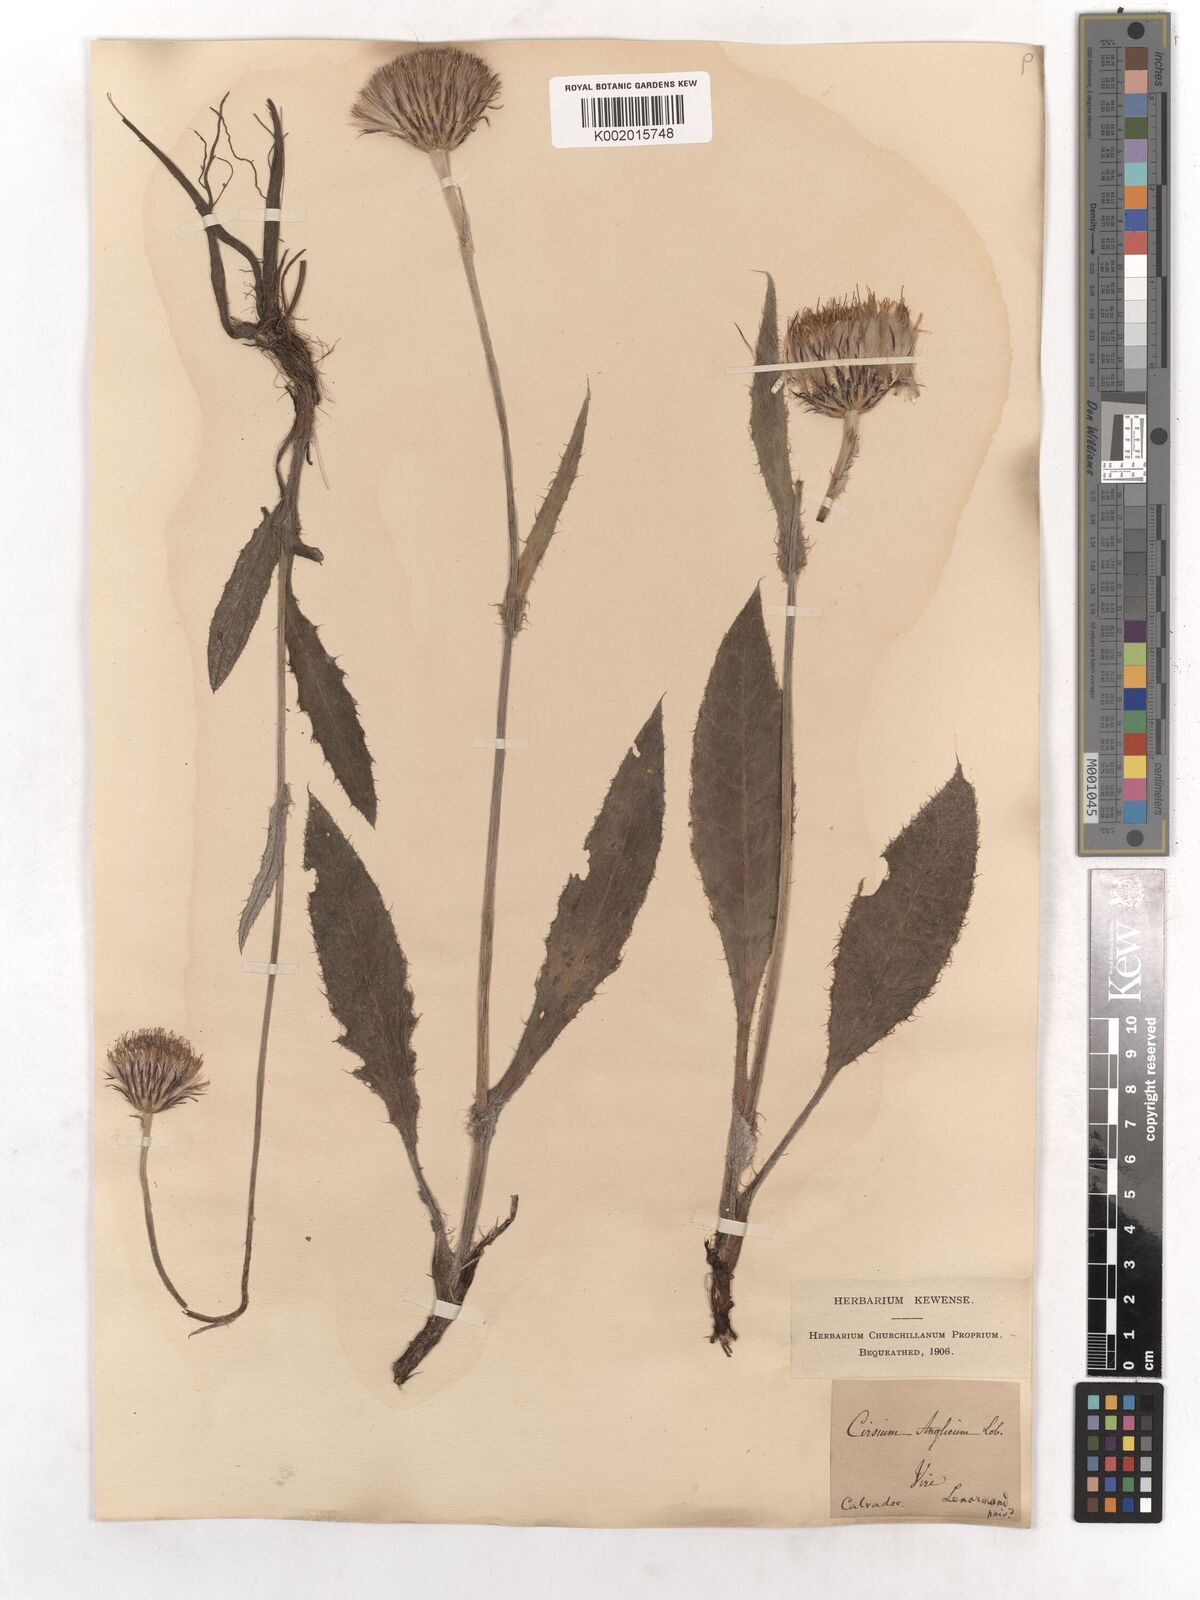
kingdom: Plantae
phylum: Tracheophyta
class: Magnoliopsida
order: Asterales
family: Asteraceae
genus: Cirsium
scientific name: Cirsium dissectum
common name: Meadow thistle
